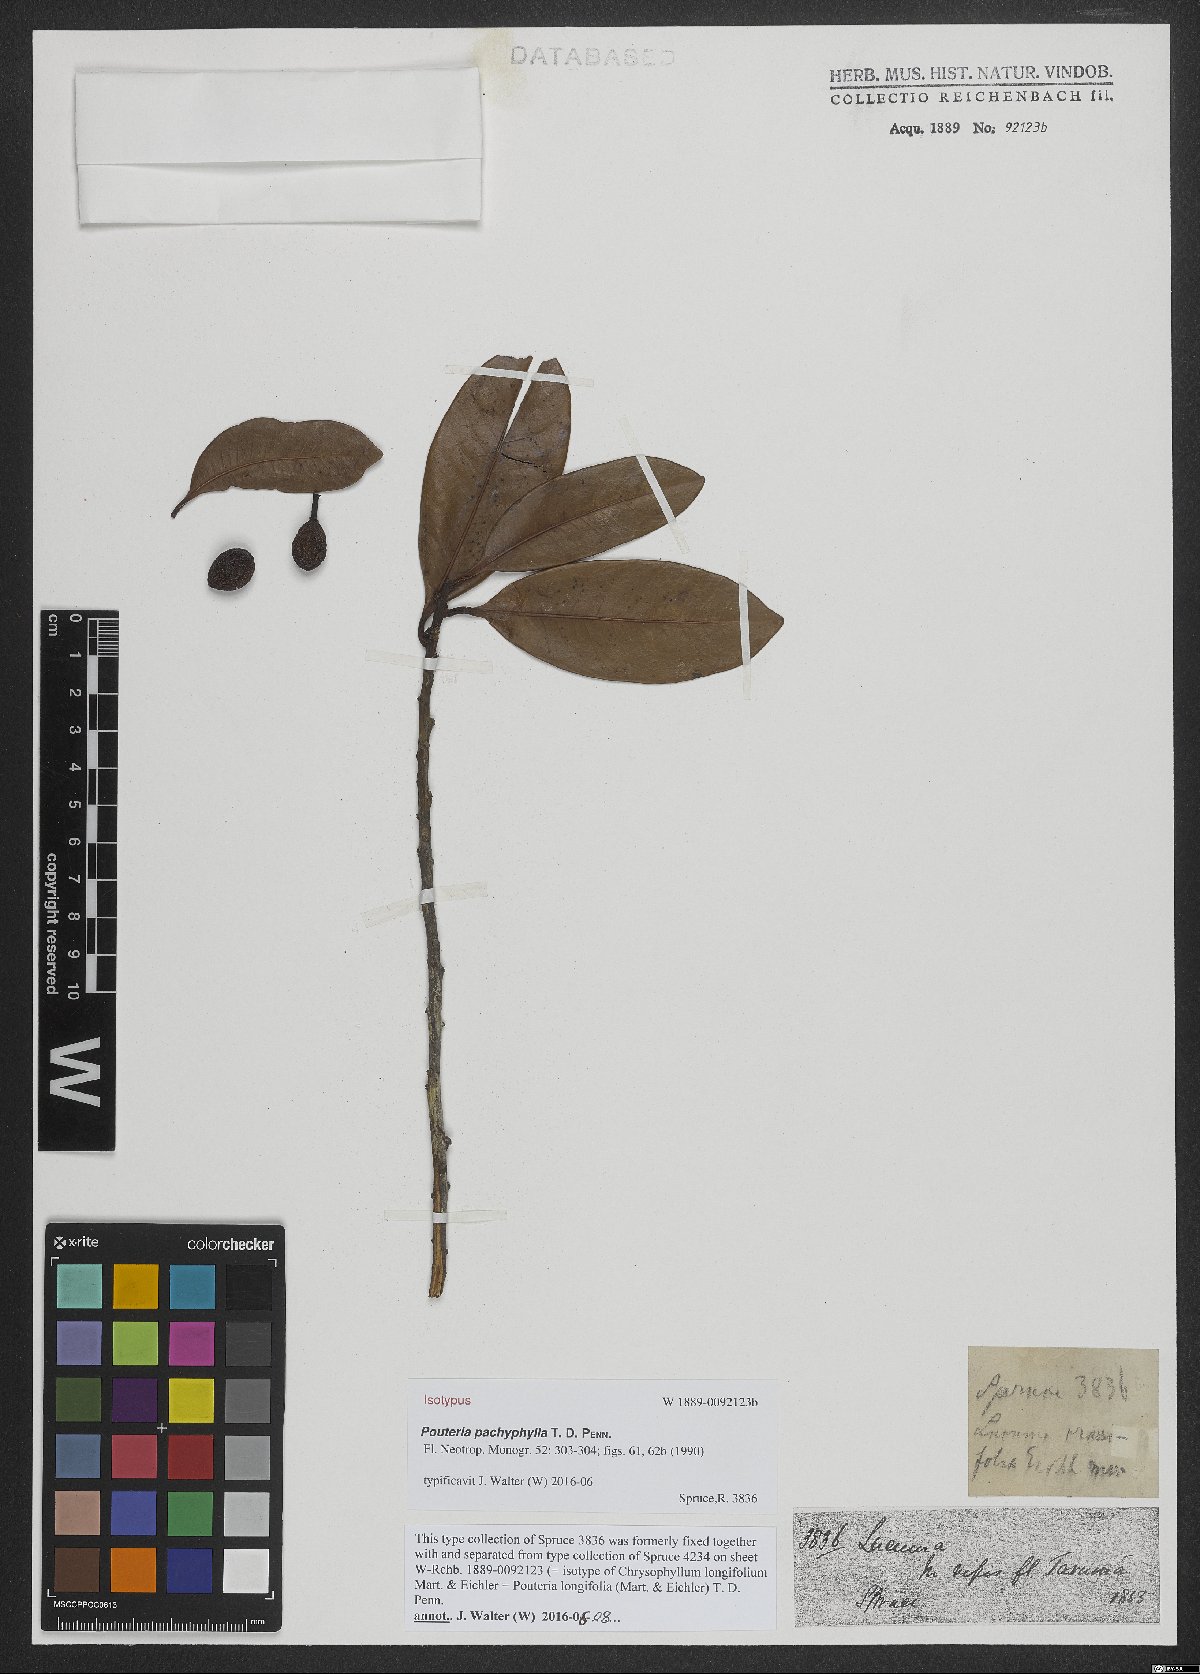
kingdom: Plantae
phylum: Tracheophyta
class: Magnoliopsida
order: Ericales
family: Sapotaceae
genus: Pouteria
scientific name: Pouteria pachyphylla
